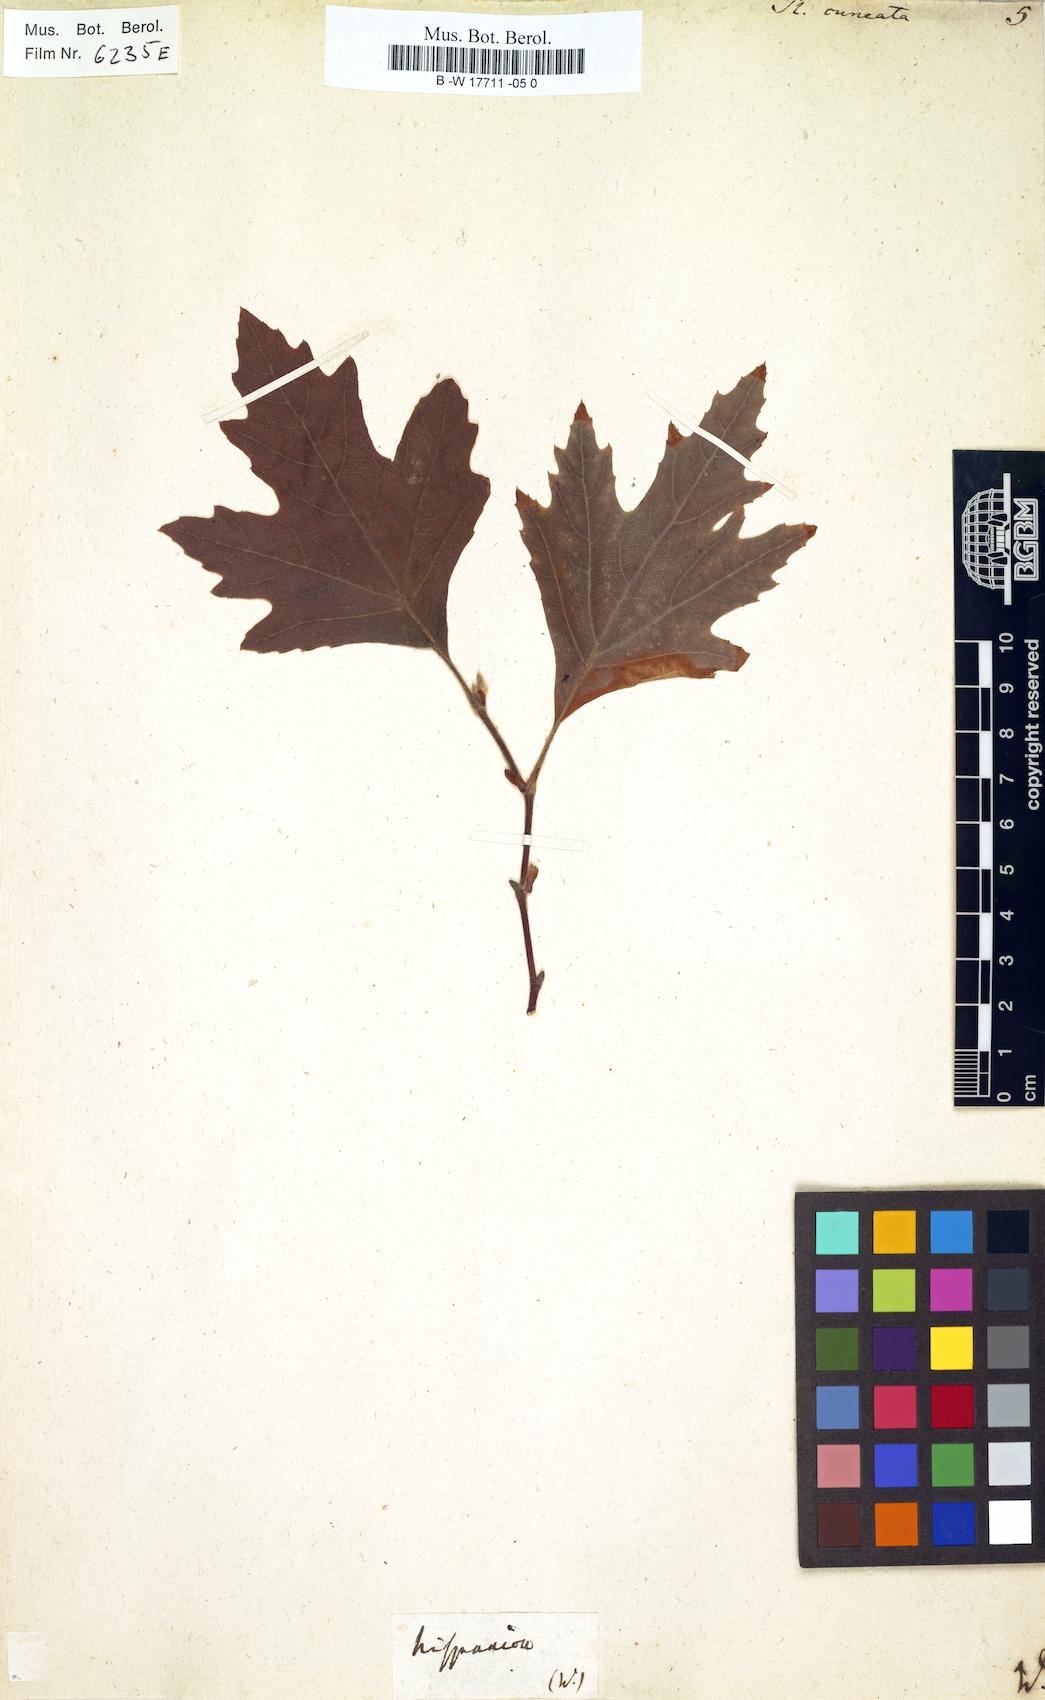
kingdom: Plantae
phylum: Tracheophyta
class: Magnoliopsida
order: Proteales
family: Platanaceae
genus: Platanus
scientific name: Platanus
